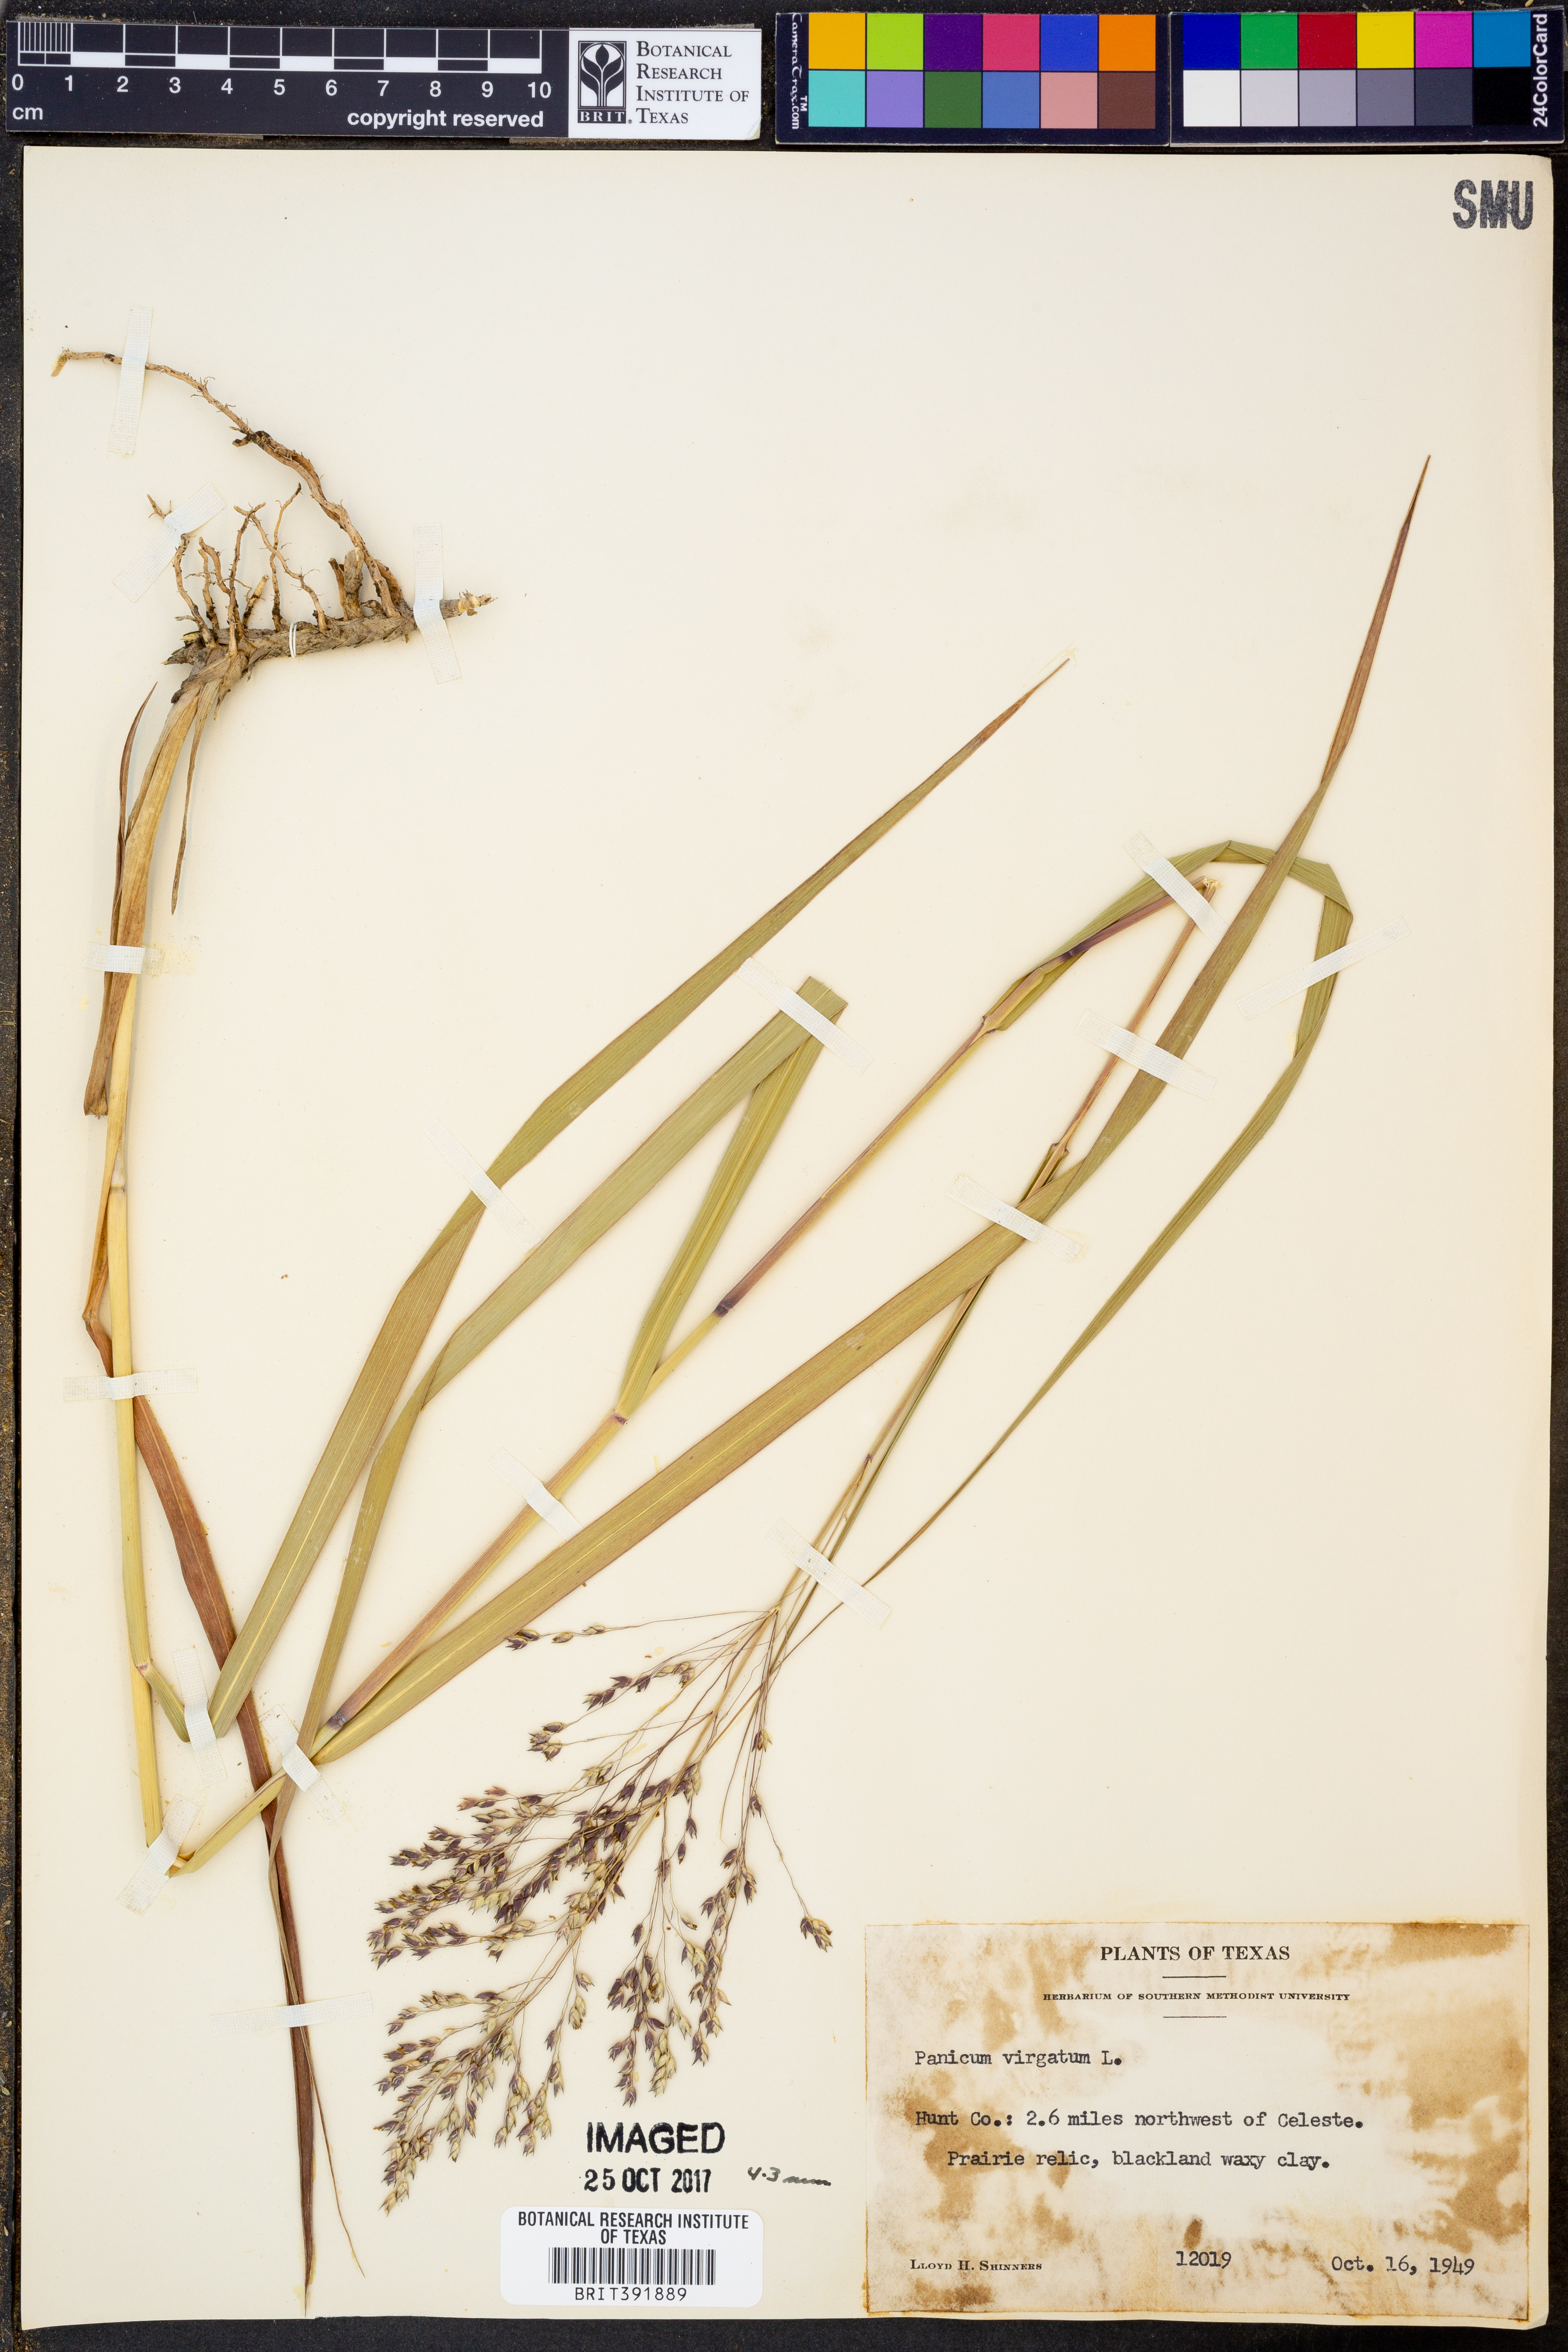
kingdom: Plantae
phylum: Tracheophyta
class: Liliopsida
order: Poales
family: Poaceae
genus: Panicum
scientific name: Panicum virgatum
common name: Switchgrass
